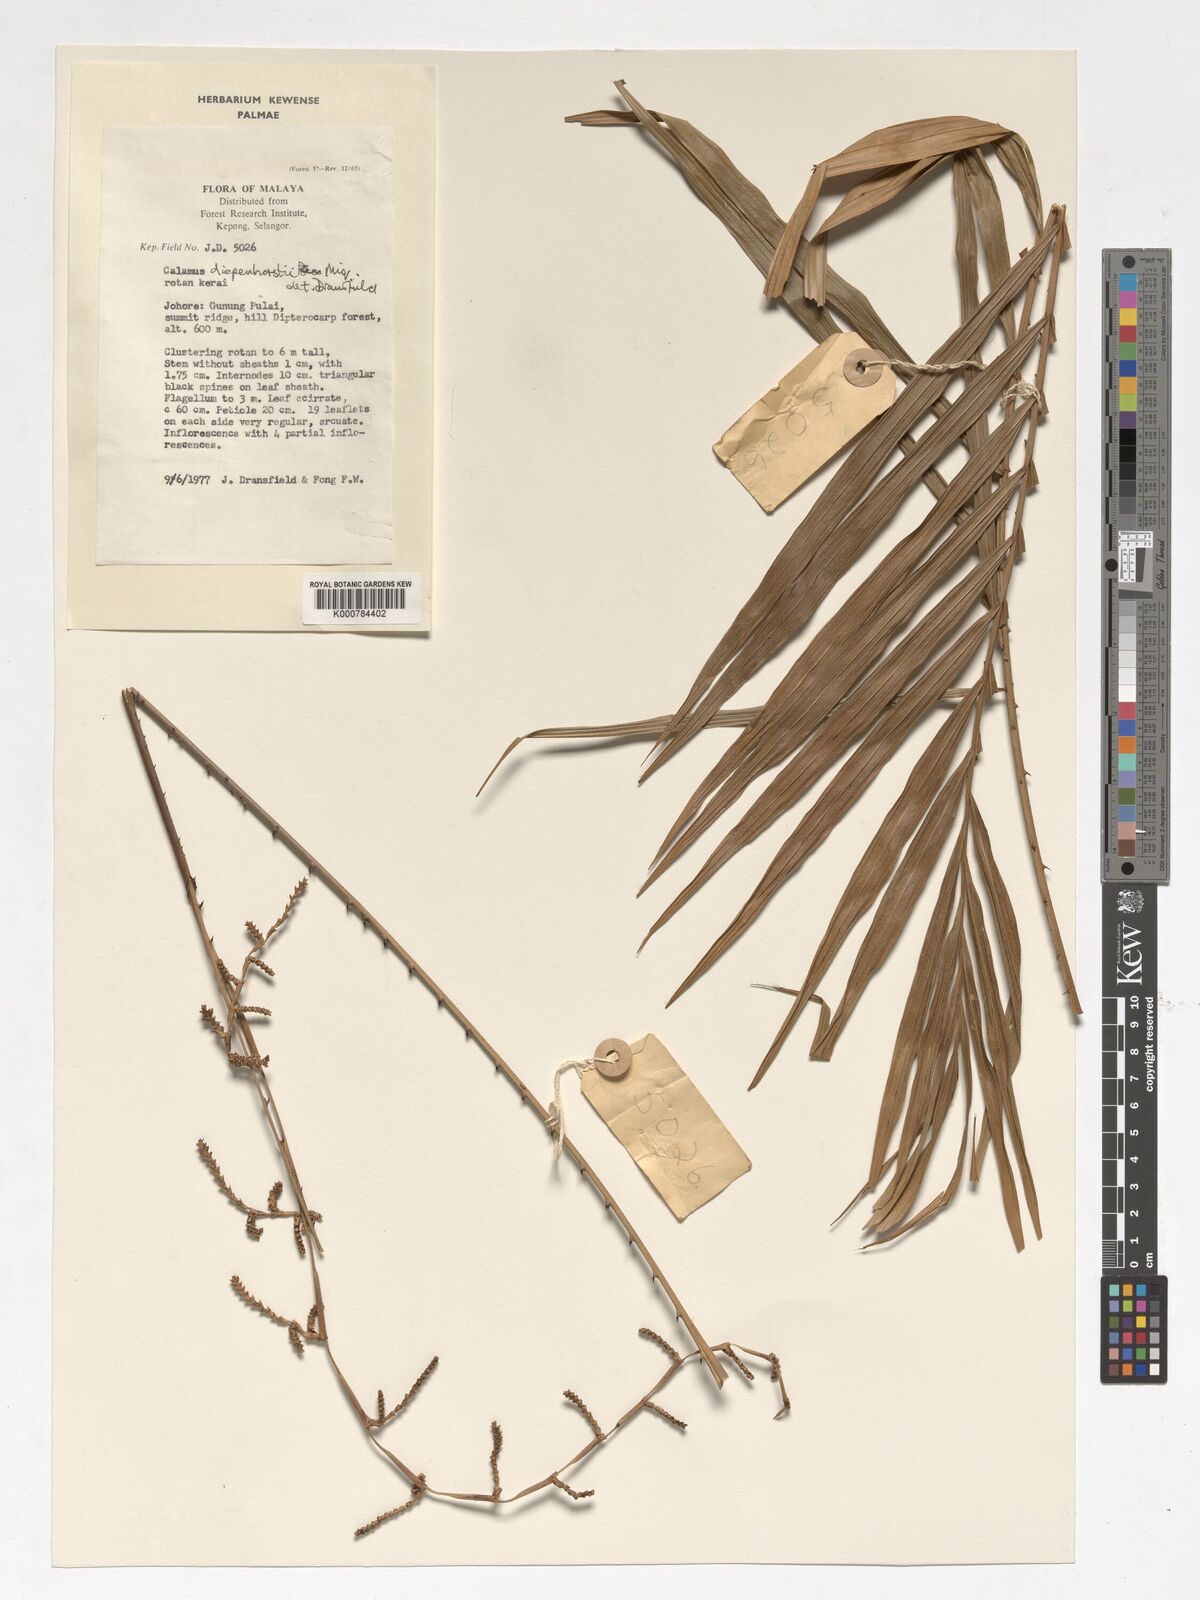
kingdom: Plantae
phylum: Tracheophyta
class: Liliopsida
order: Arecales
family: Arecaceae
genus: Calamus
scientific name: Calamus diepenhorstii
